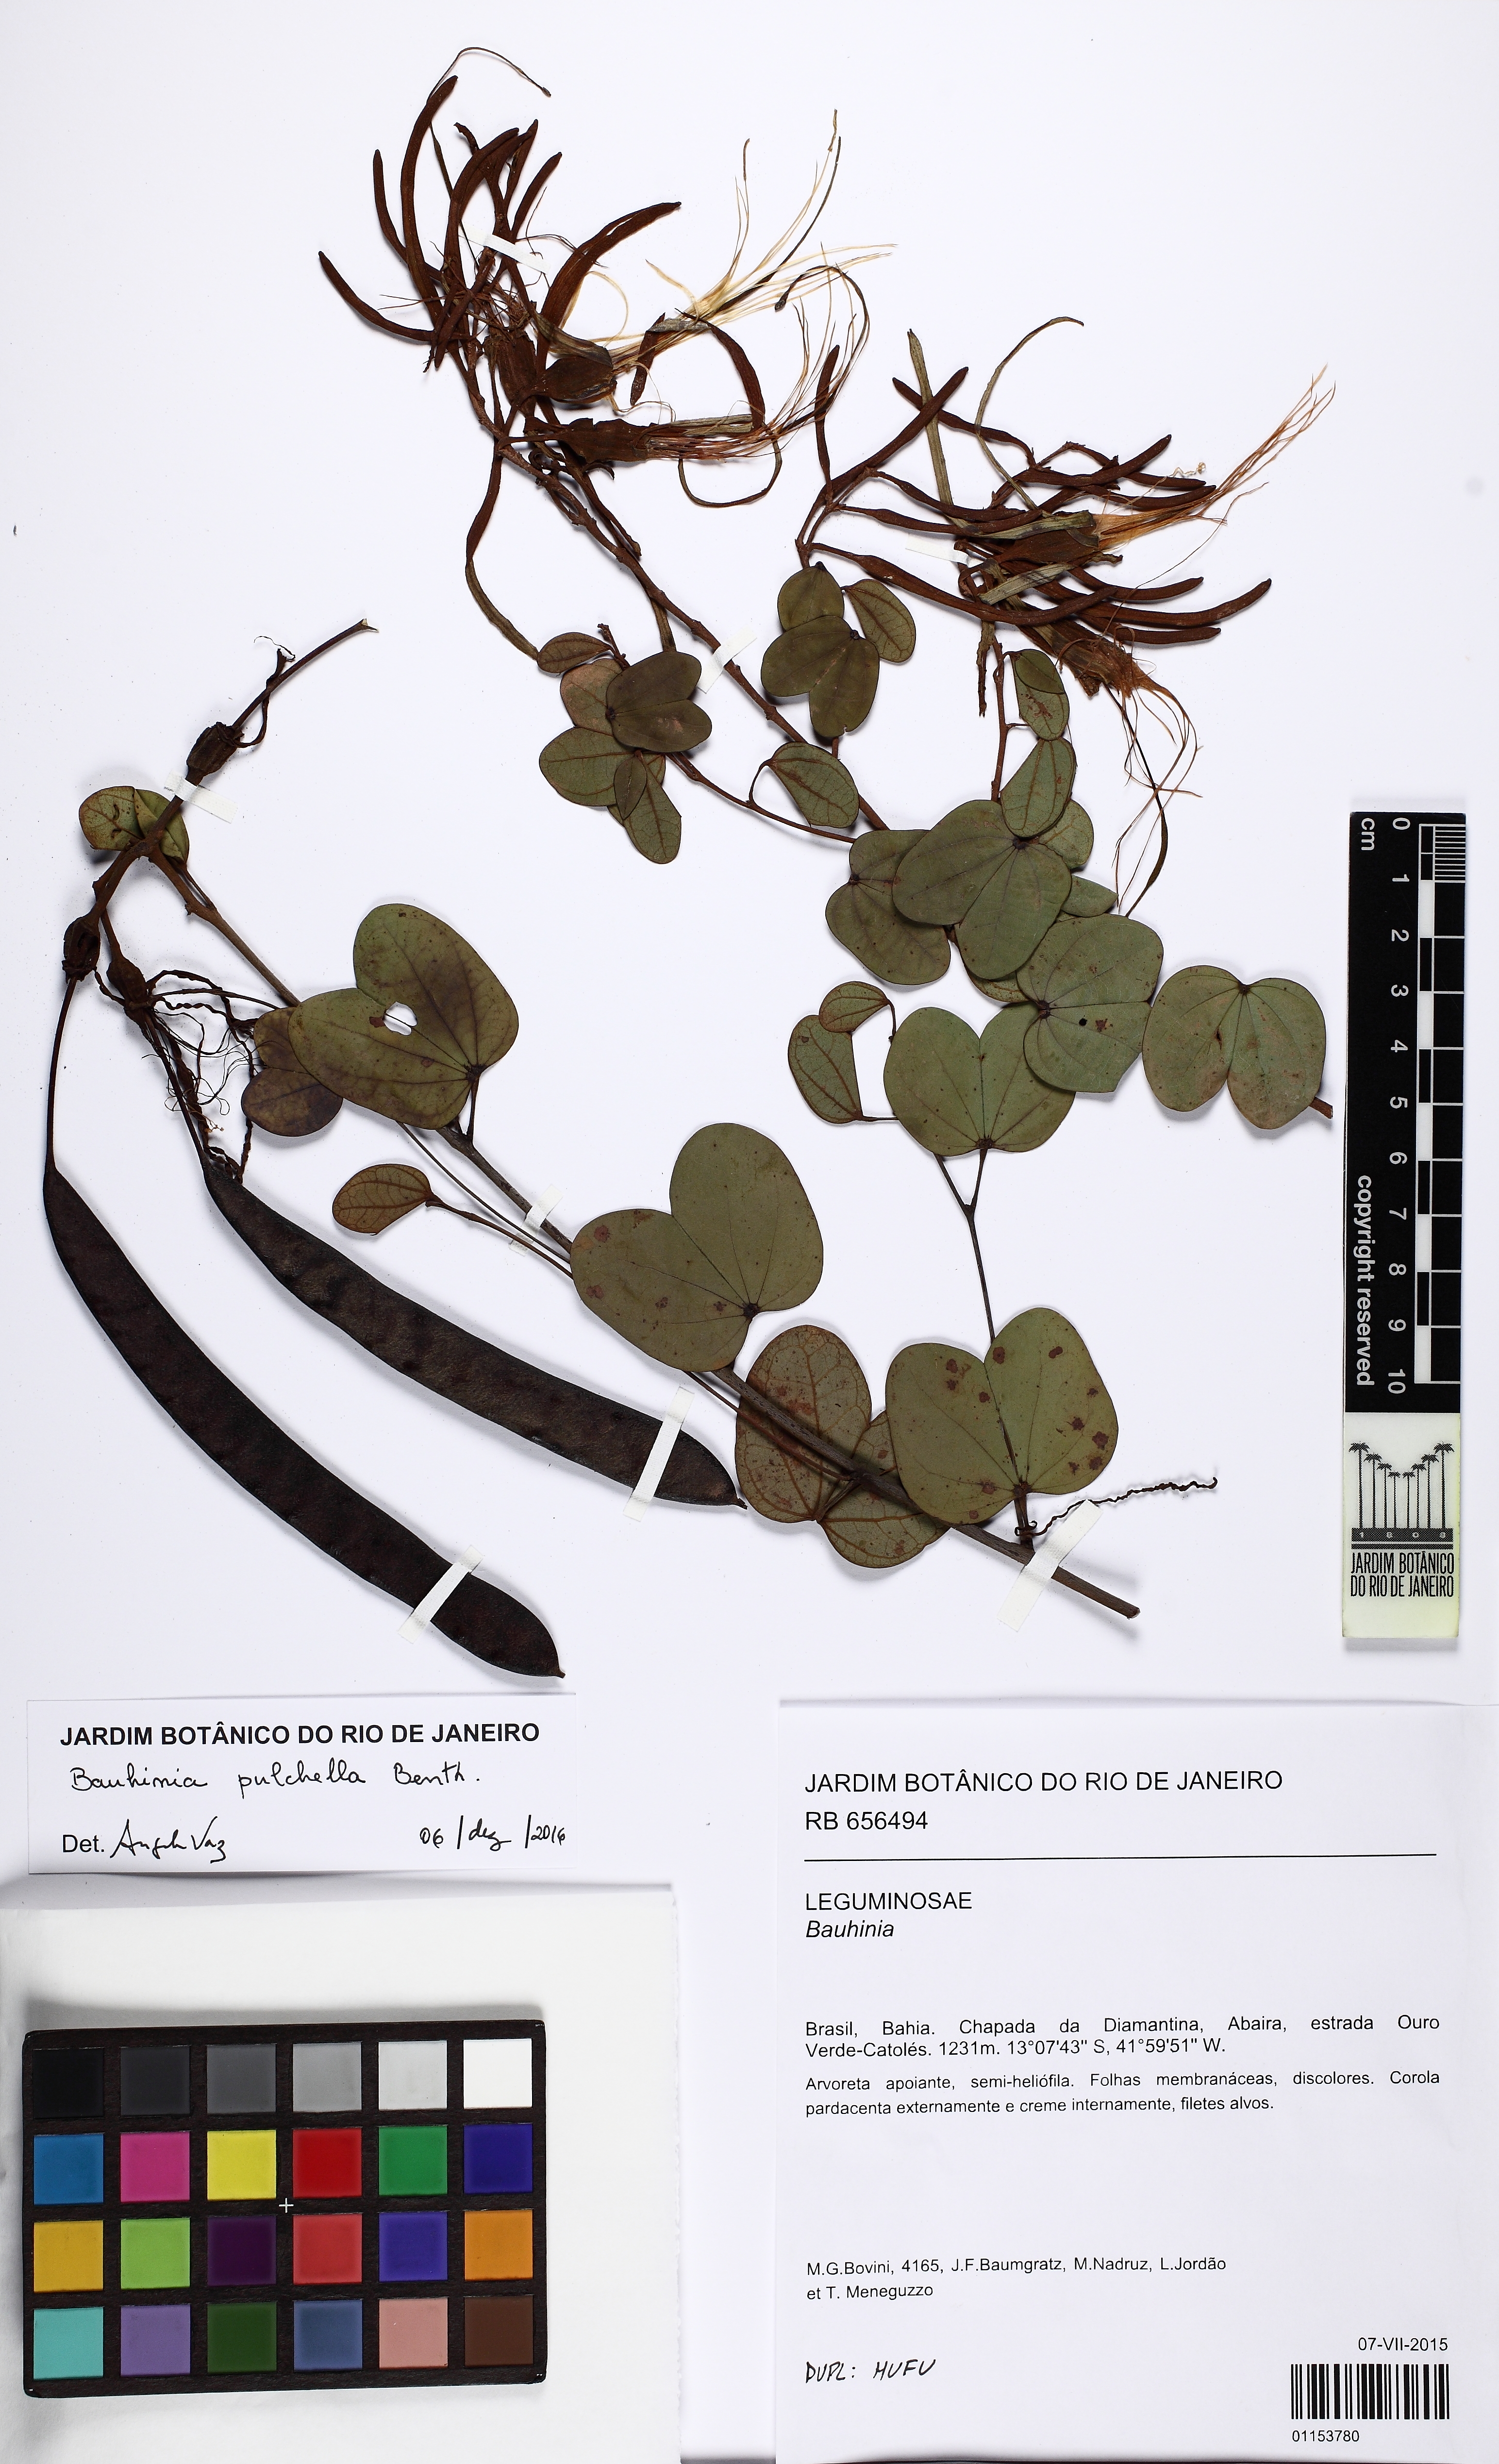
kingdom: Plantae
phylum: Tracheophyta
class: Magnoliopsida
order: Fabales
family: Fabaceae
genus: Bauhinia
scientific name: Bauhinia pulchella
